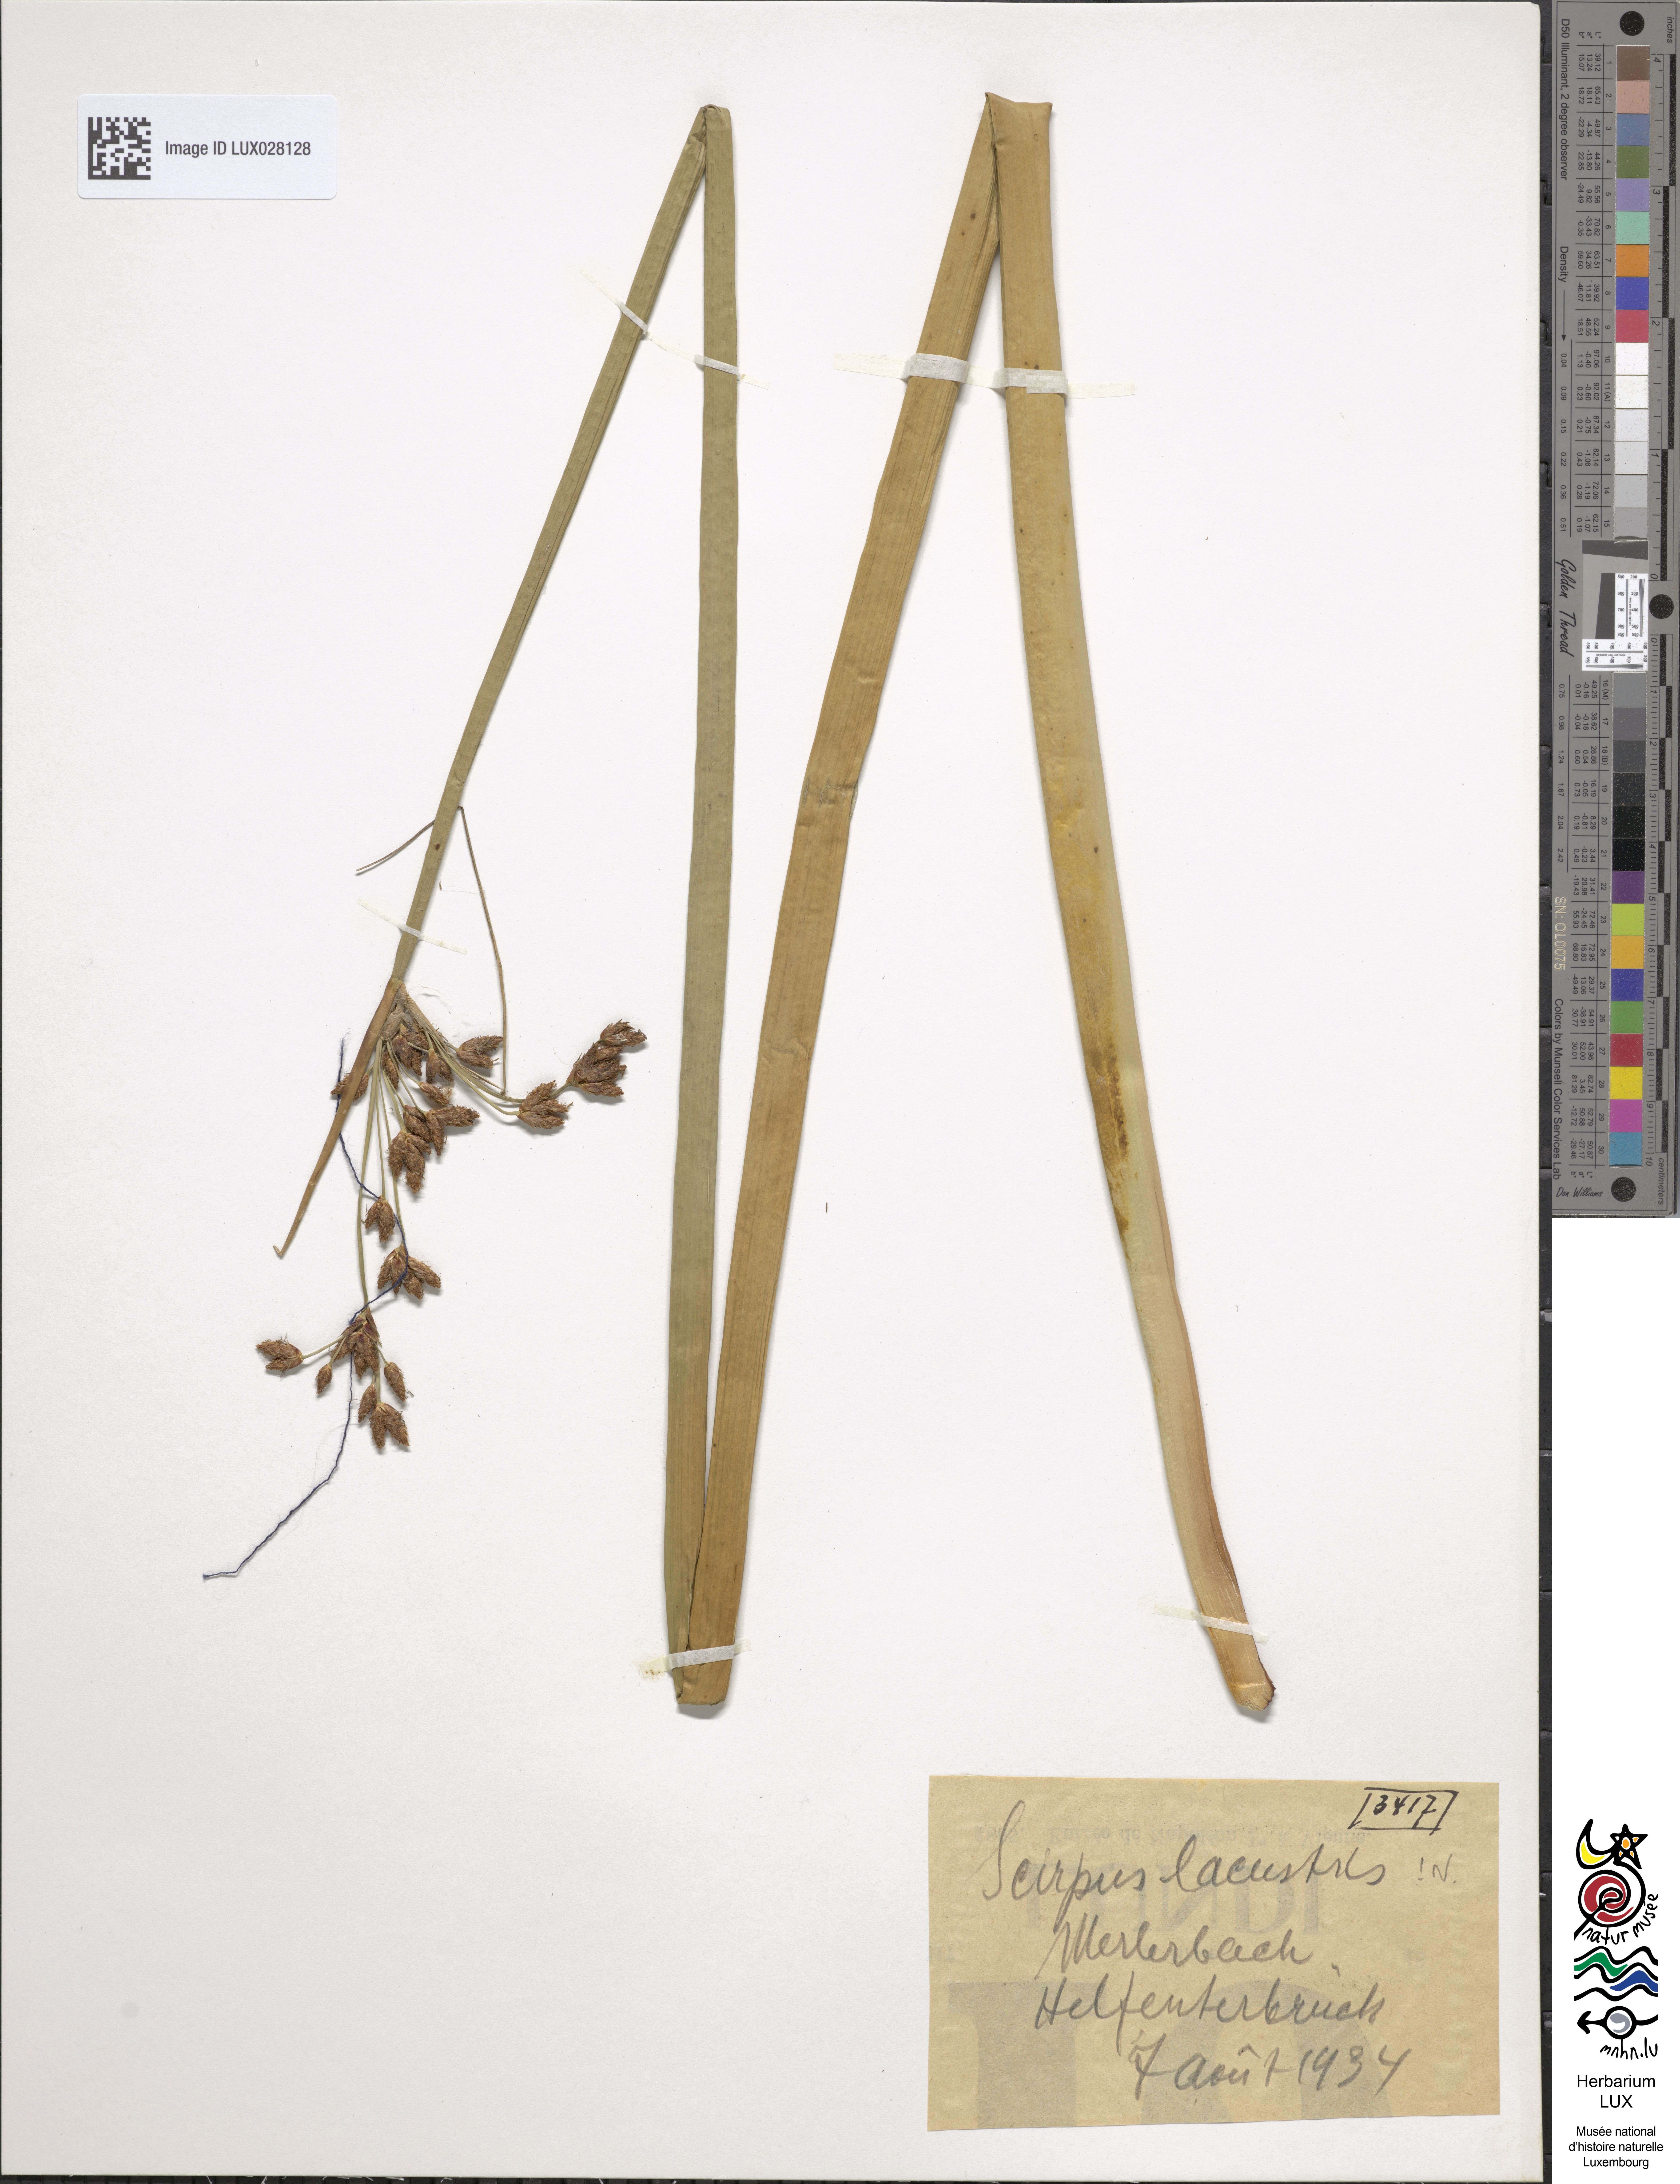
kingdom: Plantae
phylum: Tracheophyta
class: Liliopsida
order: Poales
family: Cyperaceae
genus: Schoenoplectus
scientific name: Schoenoplectus lacustris
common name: Common club-rush
